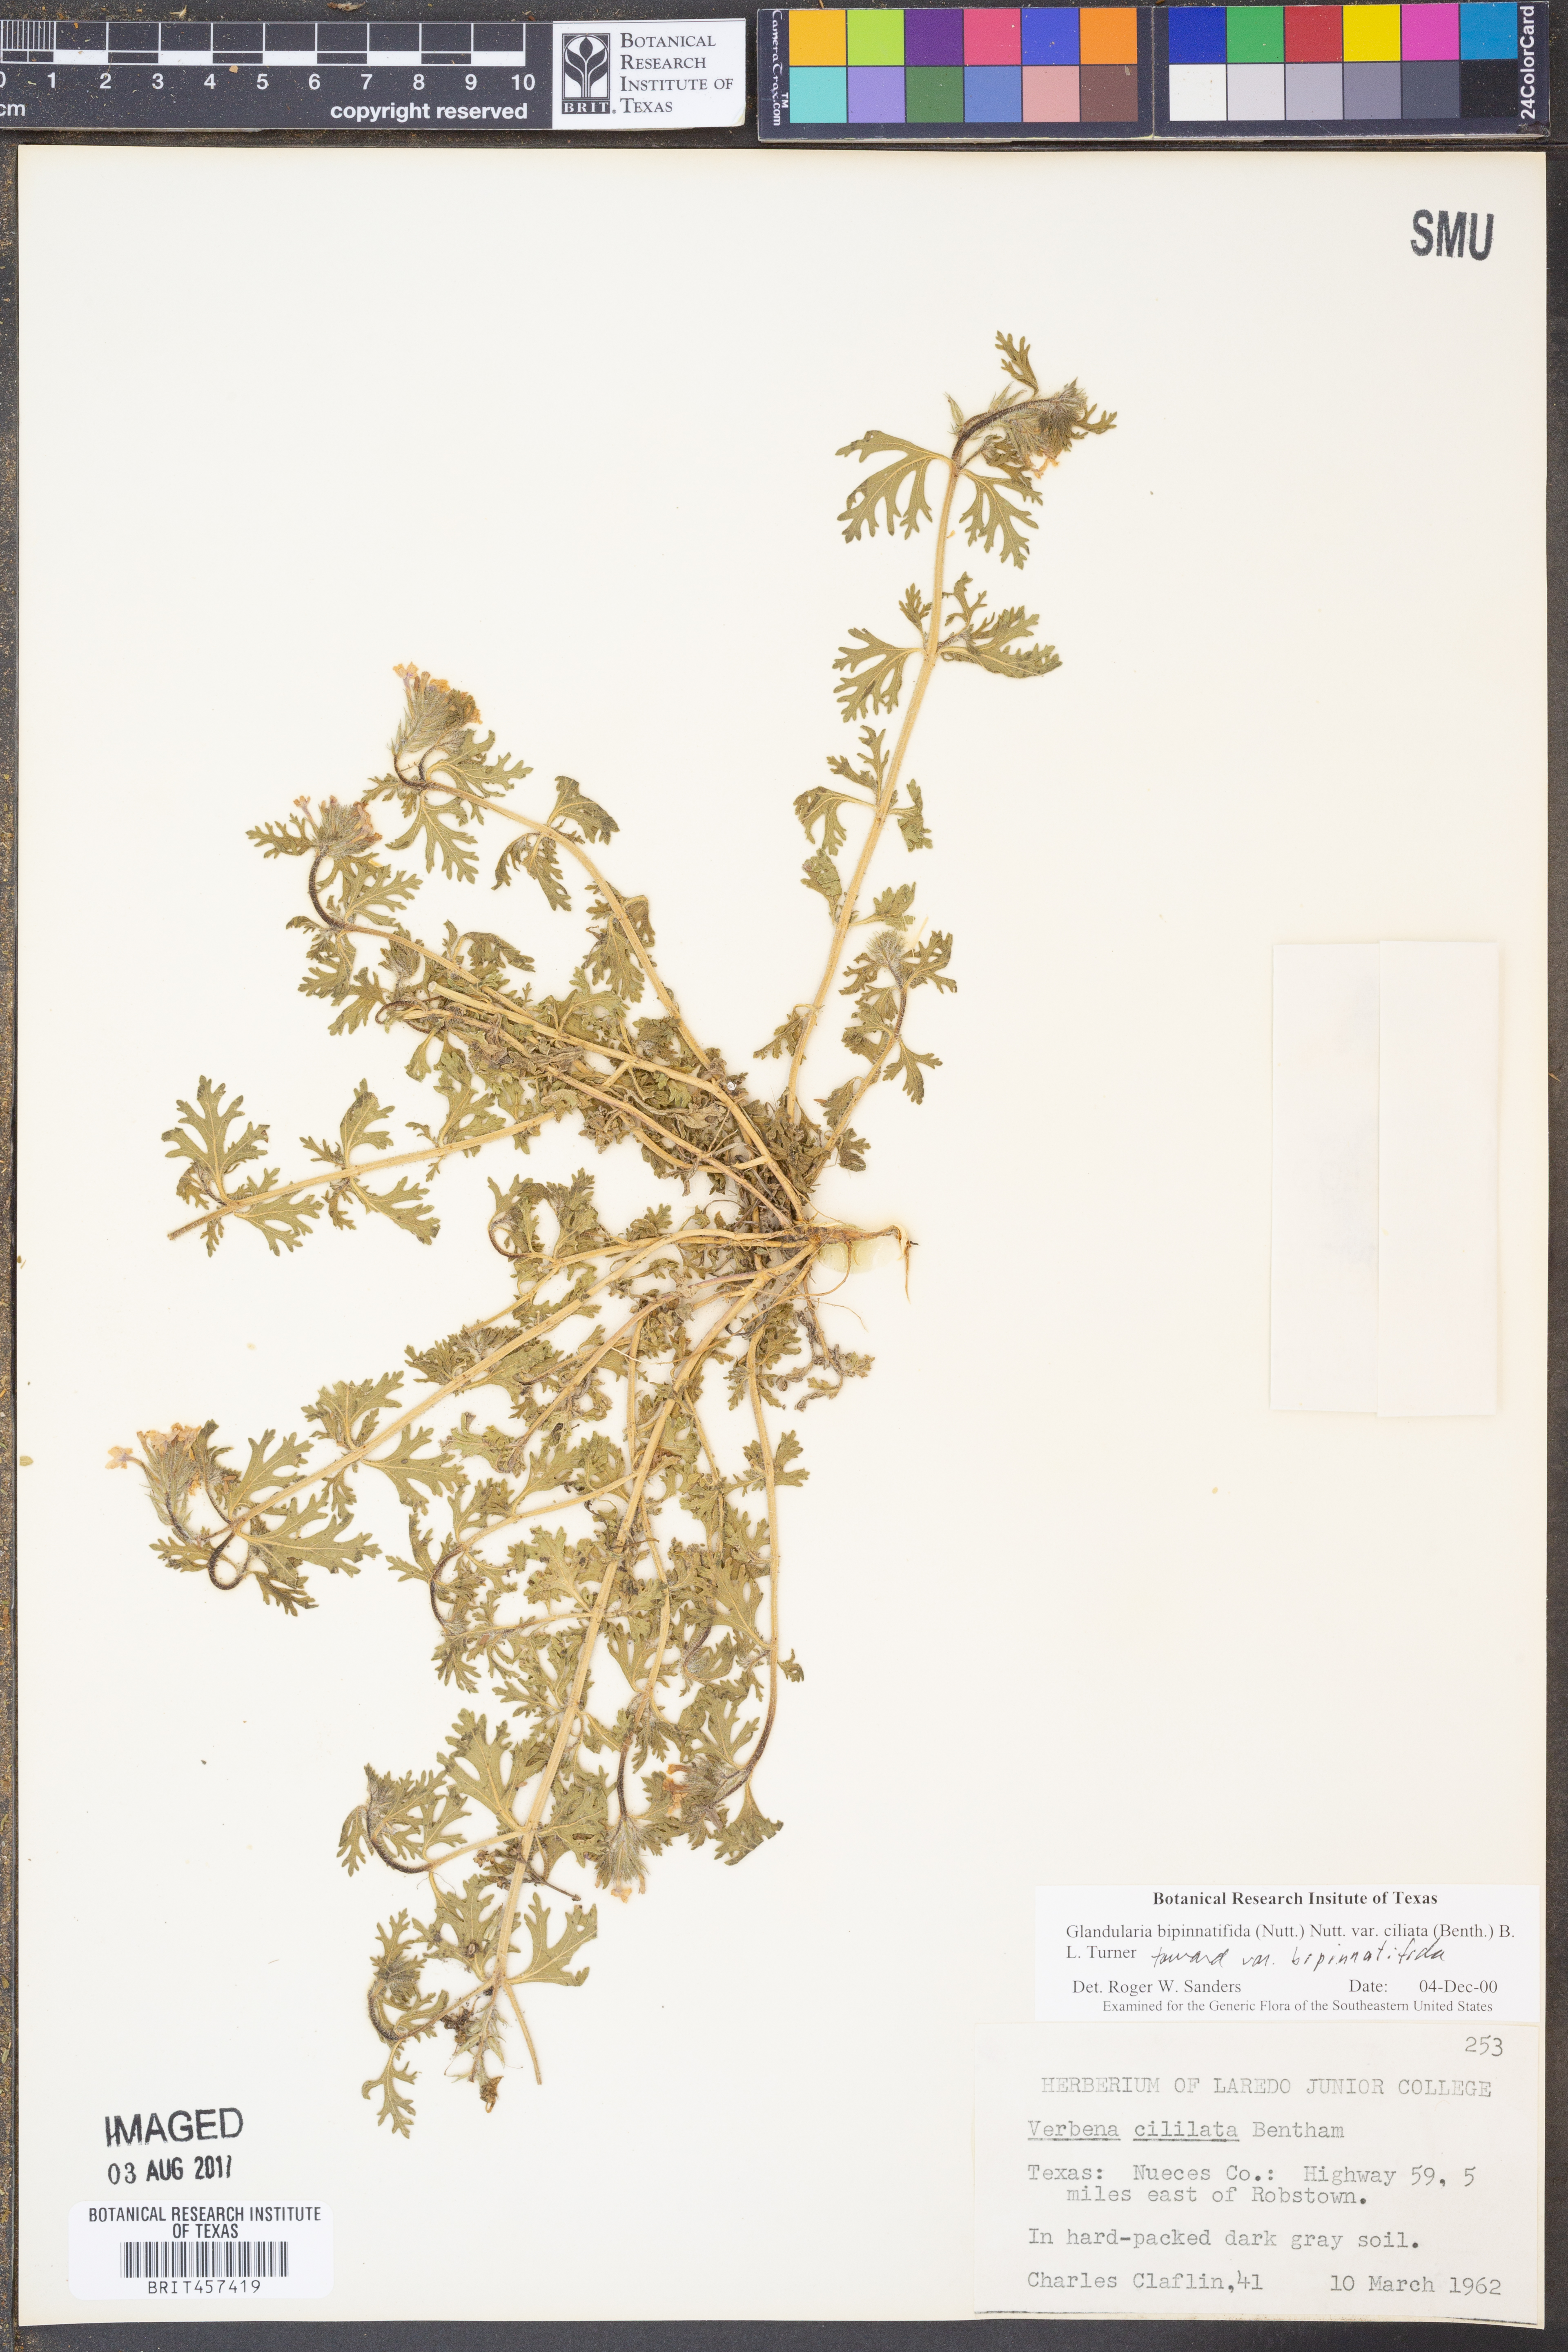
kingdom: Plantae
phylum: Tracheophyta
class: Magnoliopsida
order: Lamiales
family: Verbenaceae
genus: Verbena
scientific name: Verbena bipinnatifida
